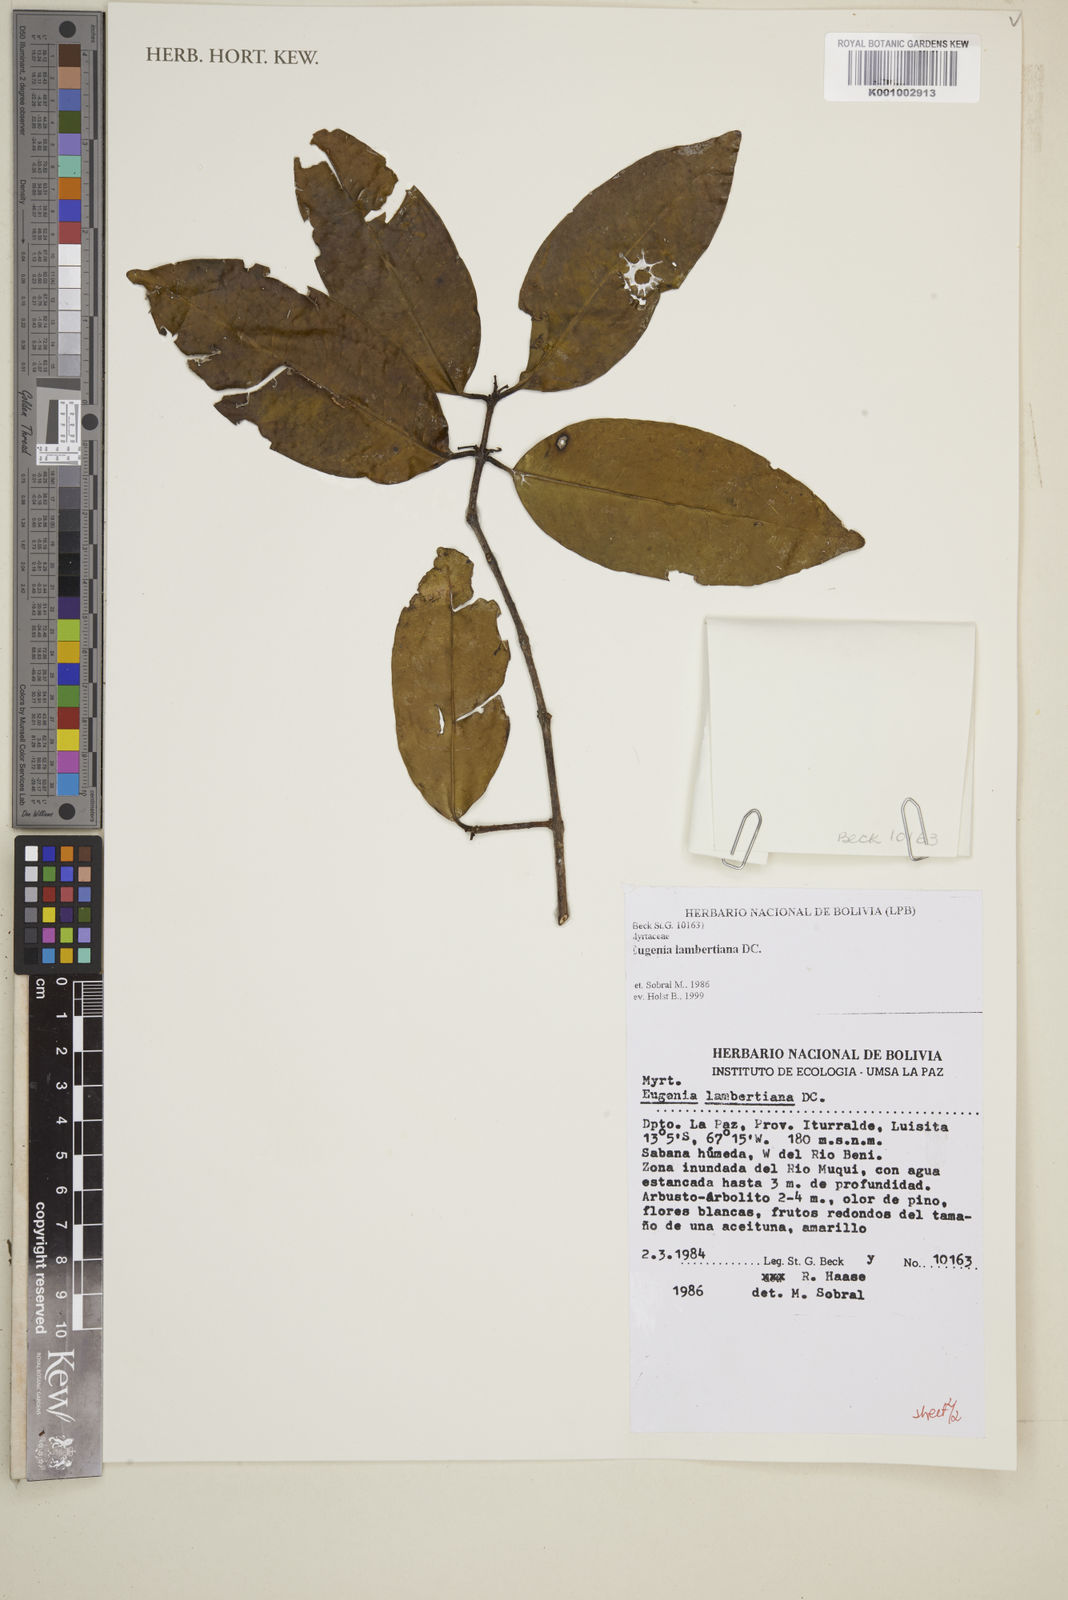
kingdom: Plantae
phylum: Tracheophyta
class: Magnoliopsida
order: Myrtales
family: Myrtaceae
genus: Eugenia
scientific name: Eugenia lambertiana
